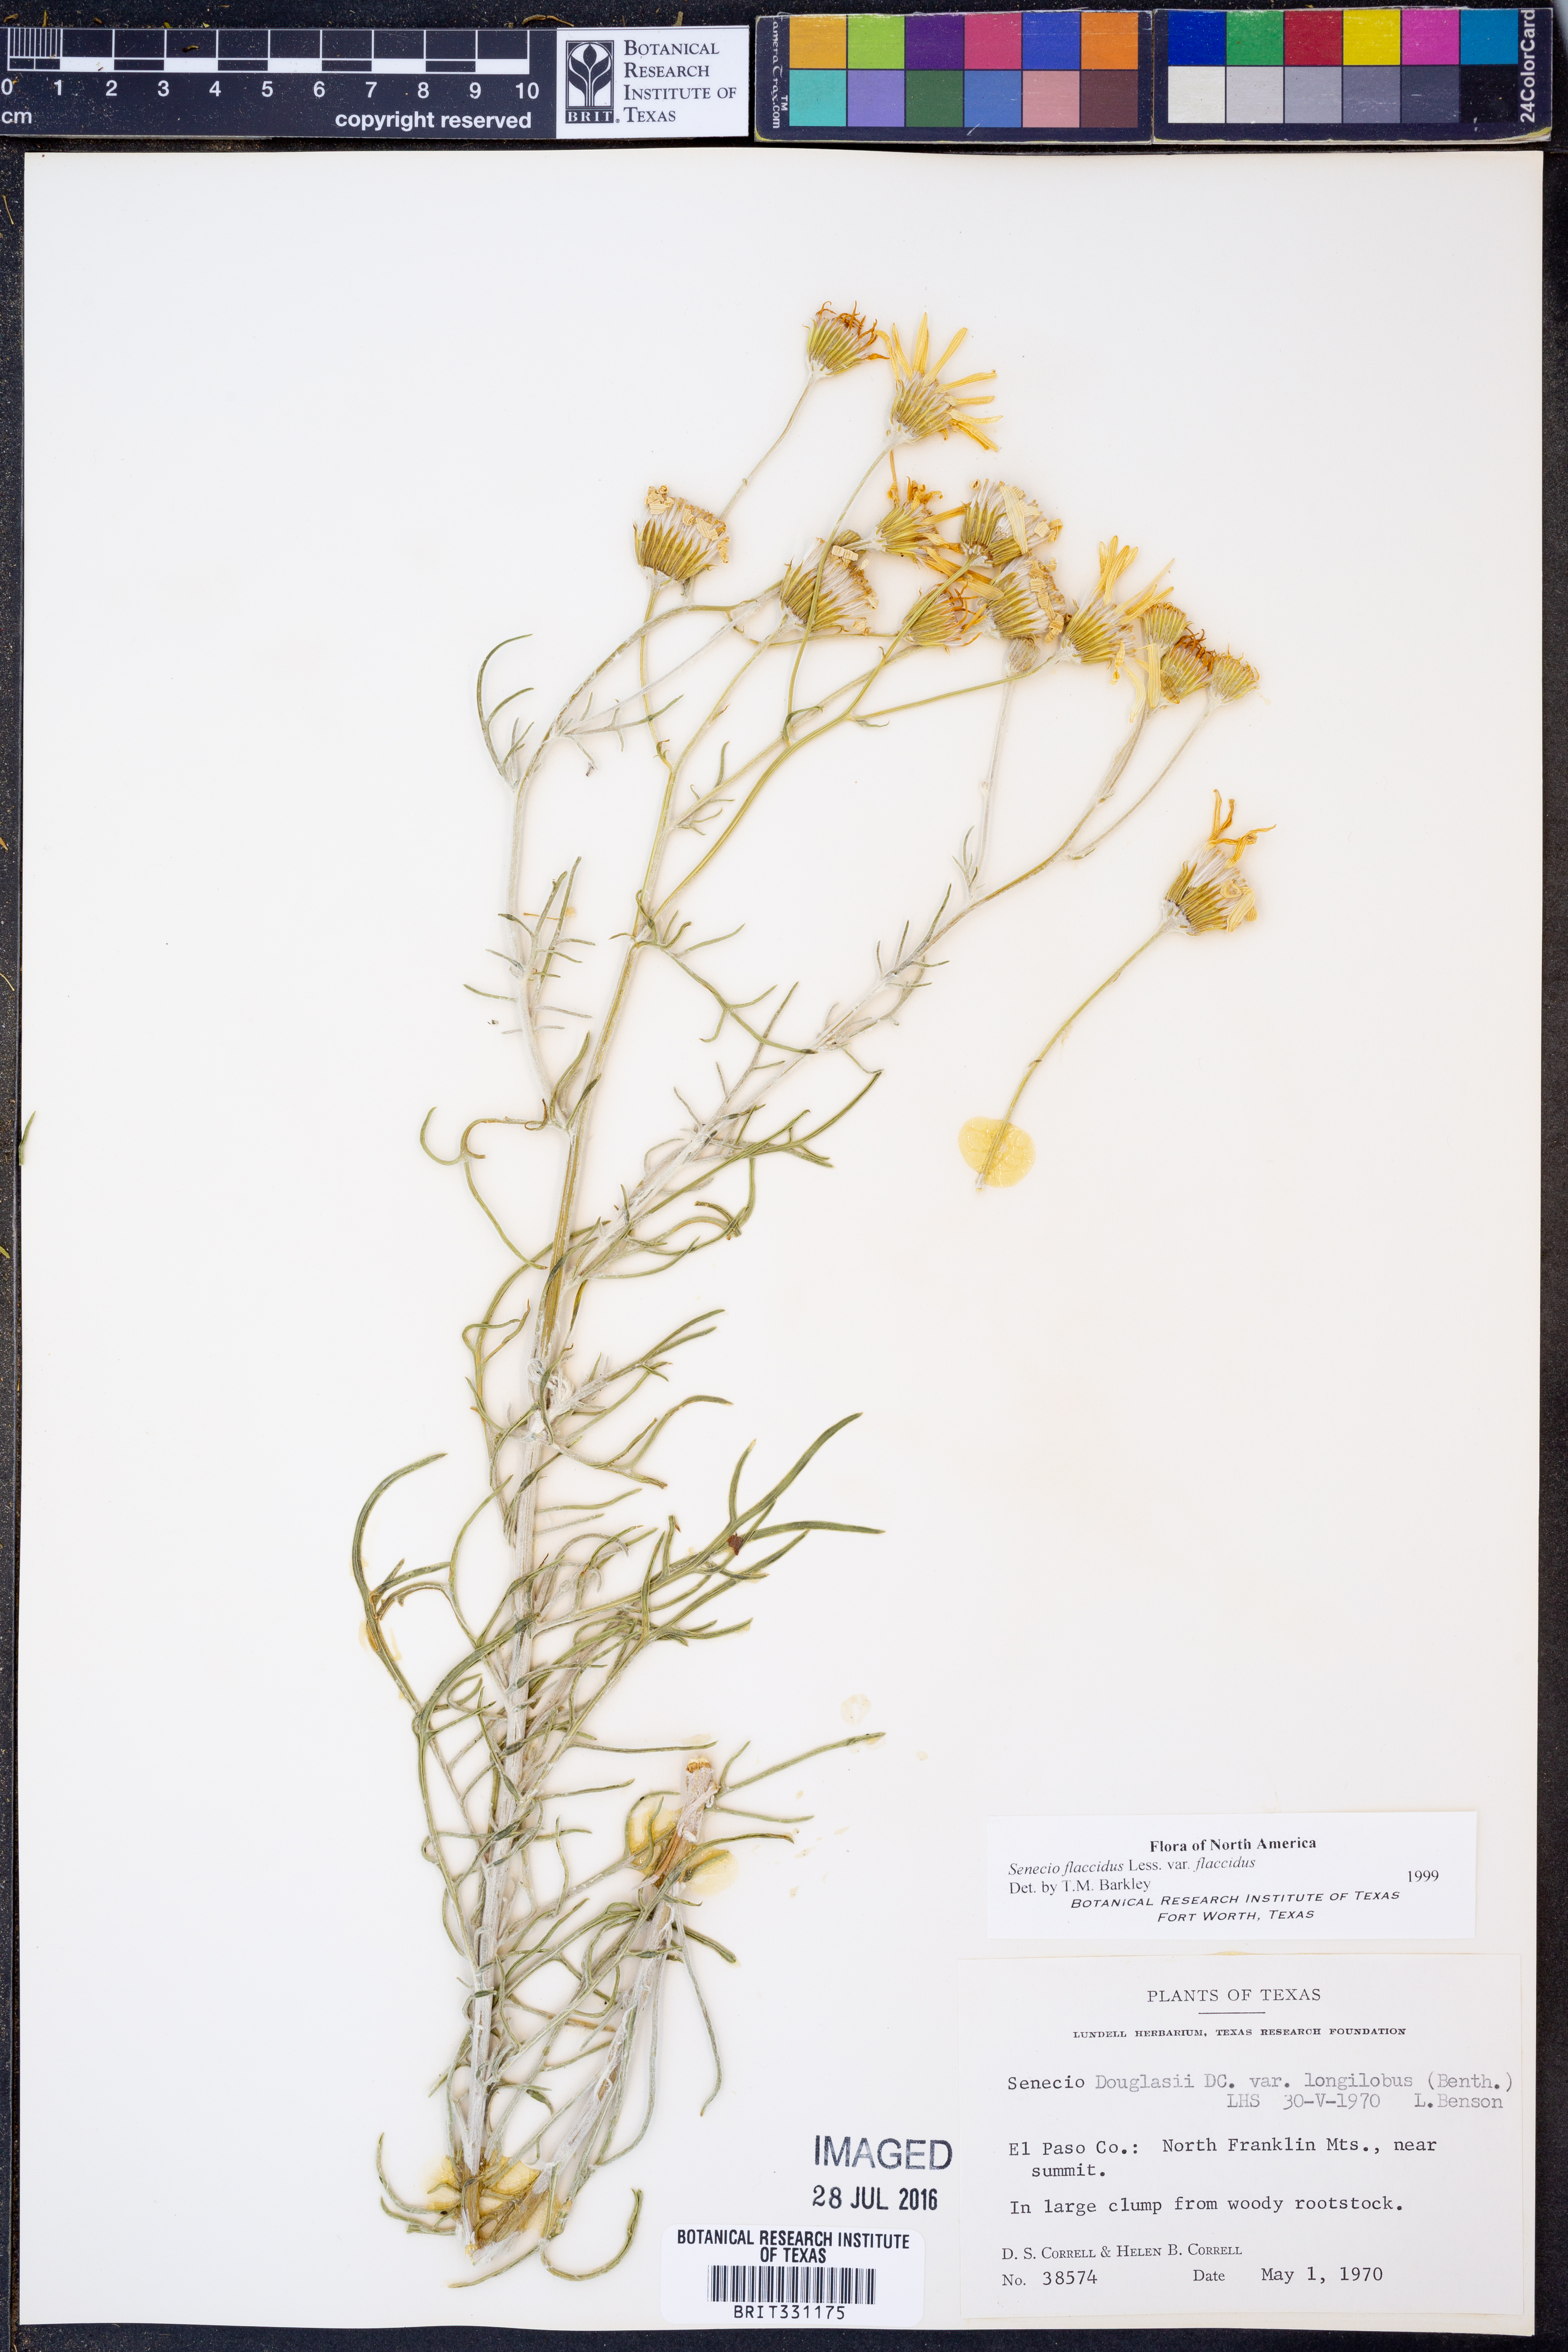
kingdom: Plantae
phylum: Tracheophyta
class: Magnoliopsida
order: Asterales
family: Asteraceae
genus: Senecio
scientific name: Senecio flaccidus
